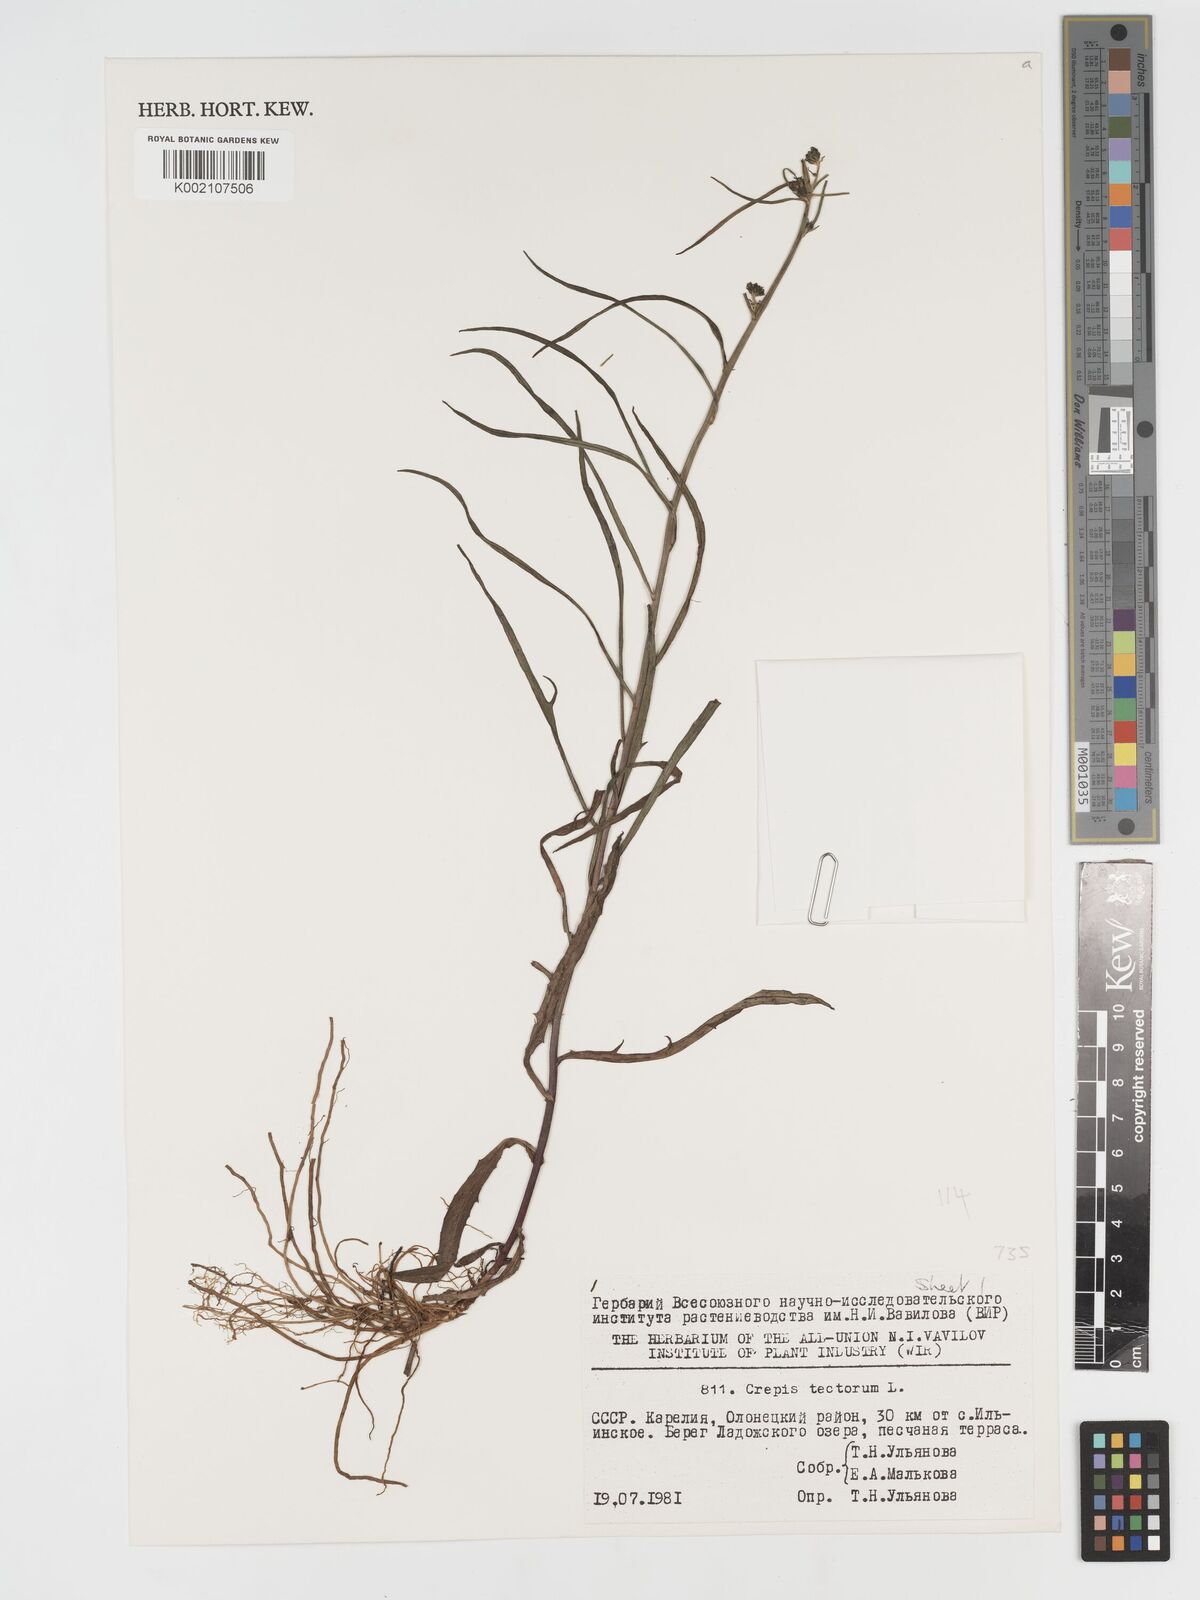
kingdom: Plantae
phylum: Tracheophyta
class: Magnoliopsida
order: Asterales
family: Asteraceae
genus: Crepis
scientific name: Crepis tectorum
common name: Narrow-leaved hawk's-beard
